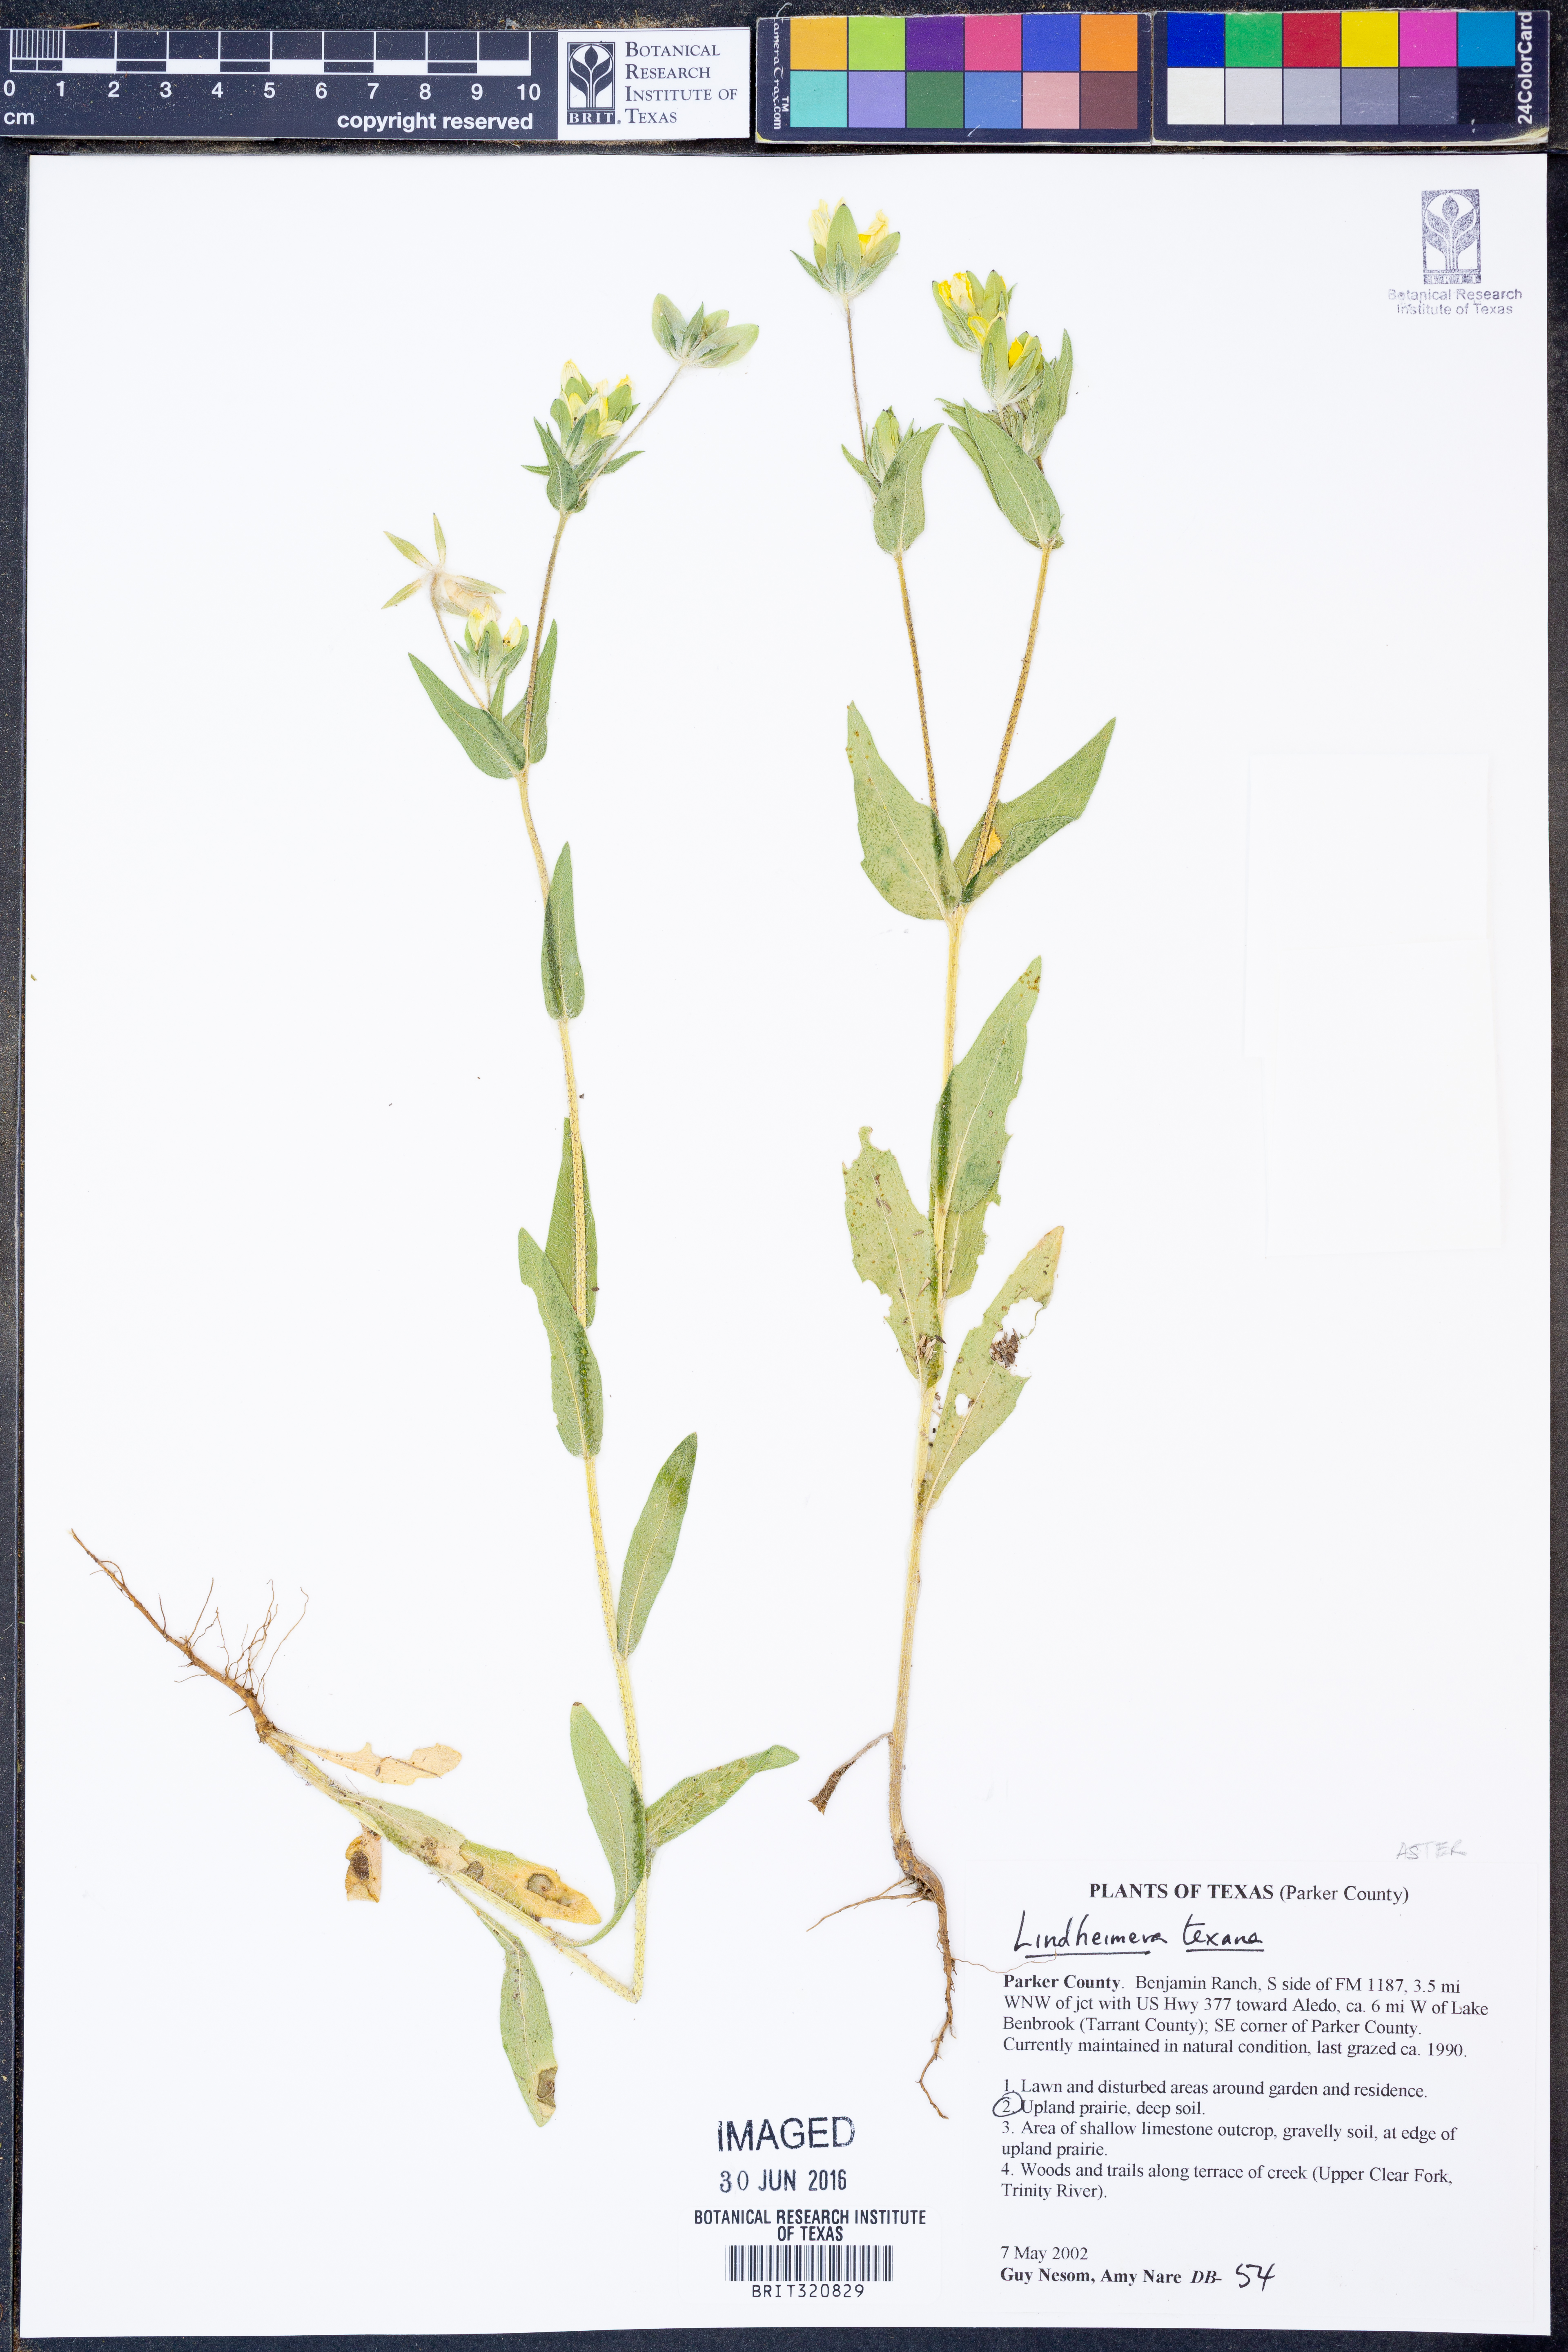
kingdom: Plantae
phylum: Tracheophyta
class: Magnoliopsida
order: Asterales
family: Asteraceae
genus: Lindheimera
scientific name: Lindheimera texana
